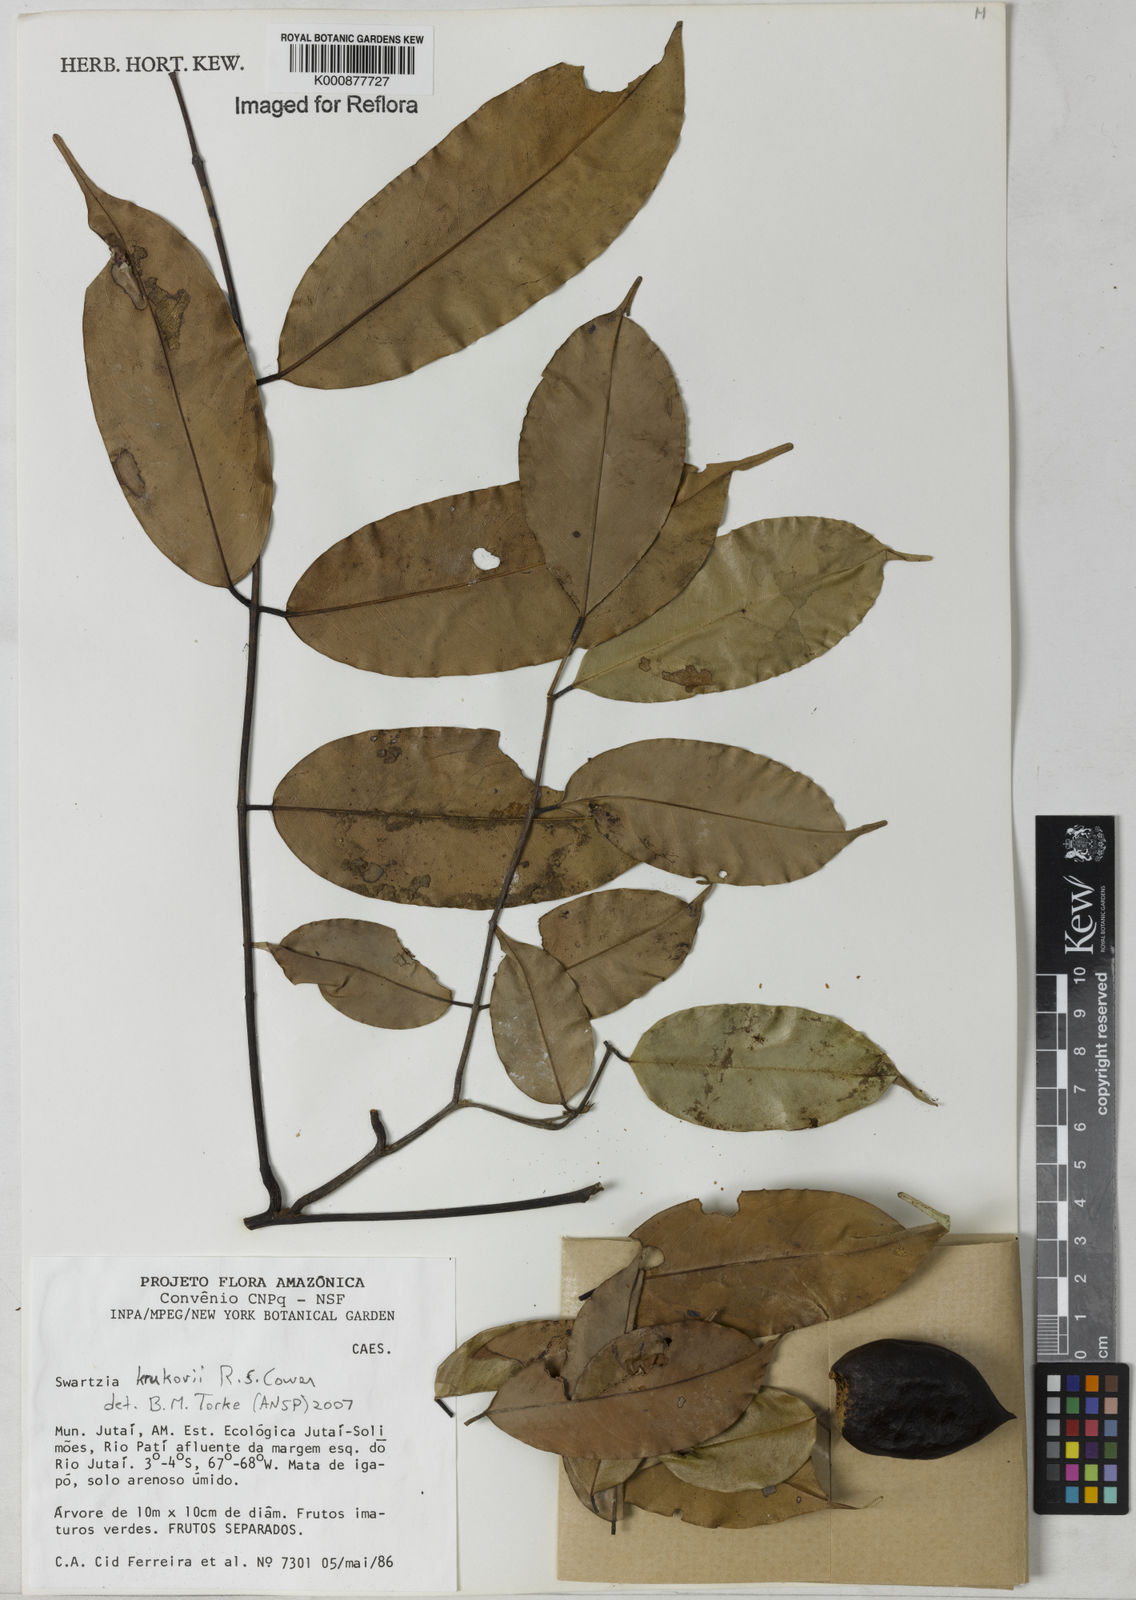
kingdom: Plantae
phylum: Tracheophyta
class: Magnoliopsida
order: Fabales
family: Fabaceae
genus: Swartzia
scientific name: Swartzia krukovii
